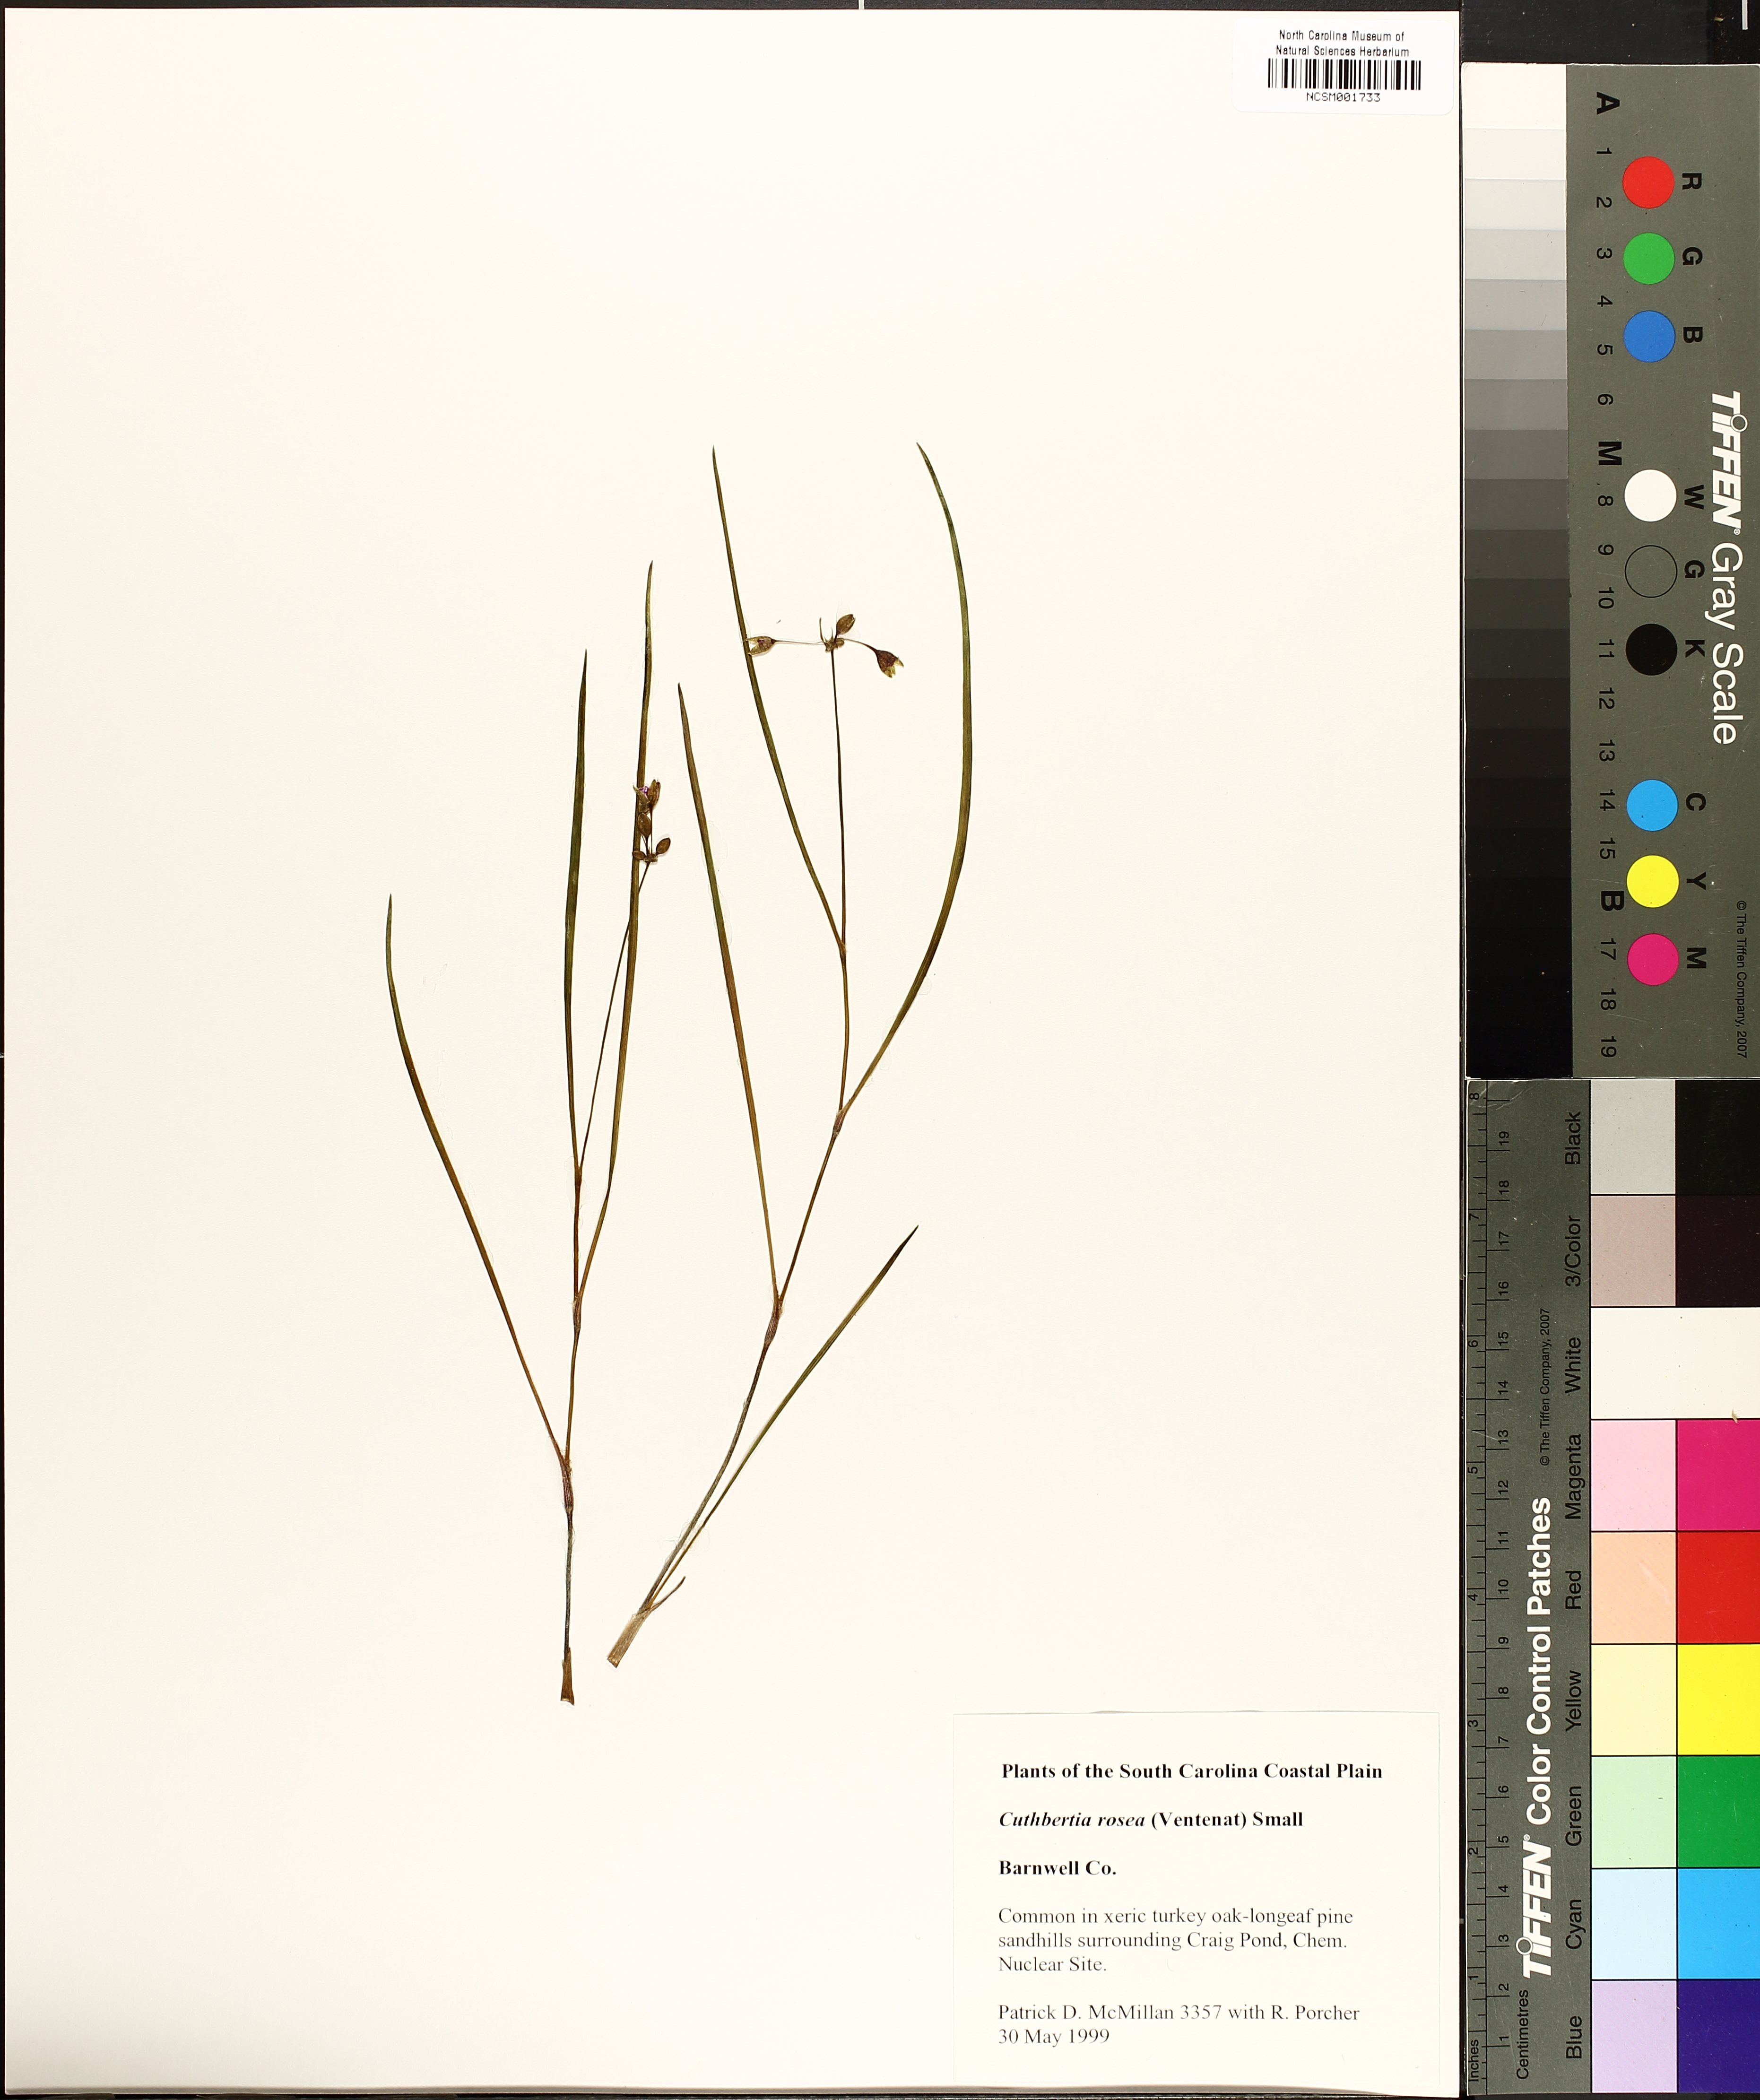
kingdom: Plantae
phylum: Tracheophyta
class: Liliopsida
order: Commelinales
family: Commelinaceae
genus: Callisia
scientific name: Callisia rosea
